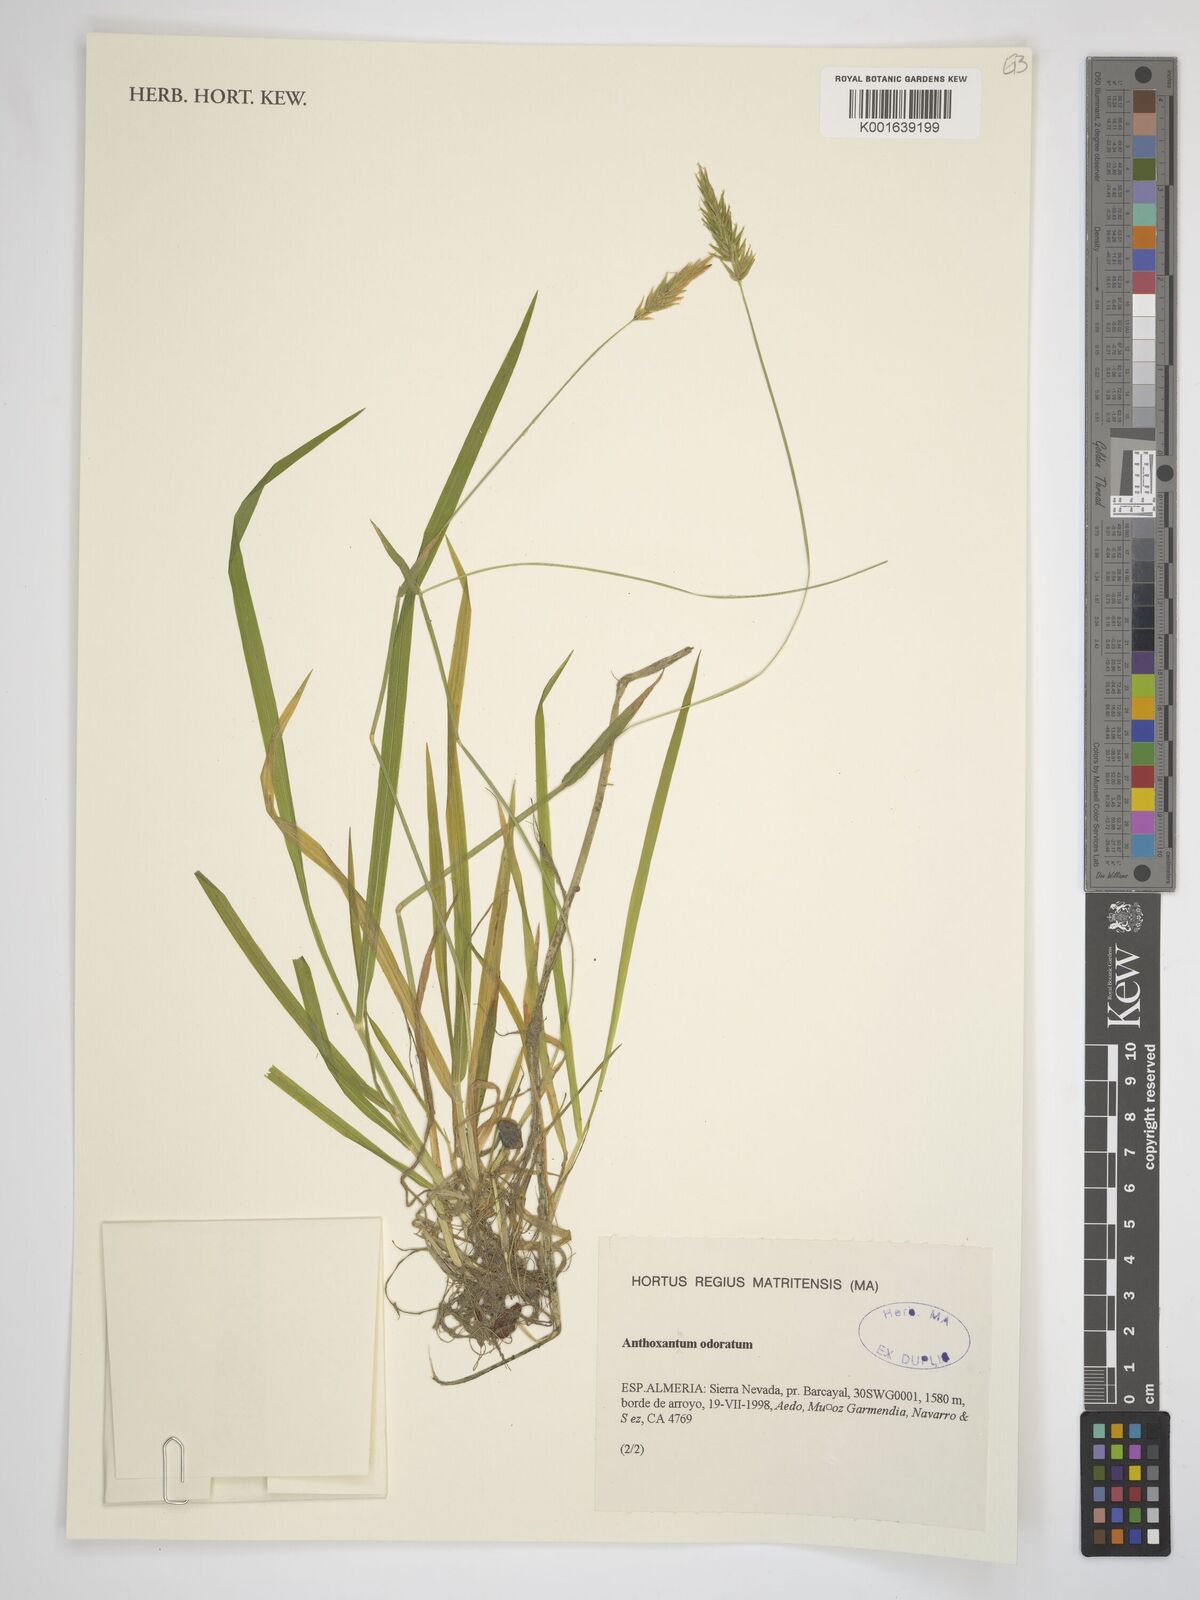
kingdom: Plantae
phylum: Tracheophyta
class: Liliopsida
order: Poales
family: Poaceae
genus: Anthoxanthum
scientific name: Anthoxanthum odoratum
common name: Sweet vernalgrass
